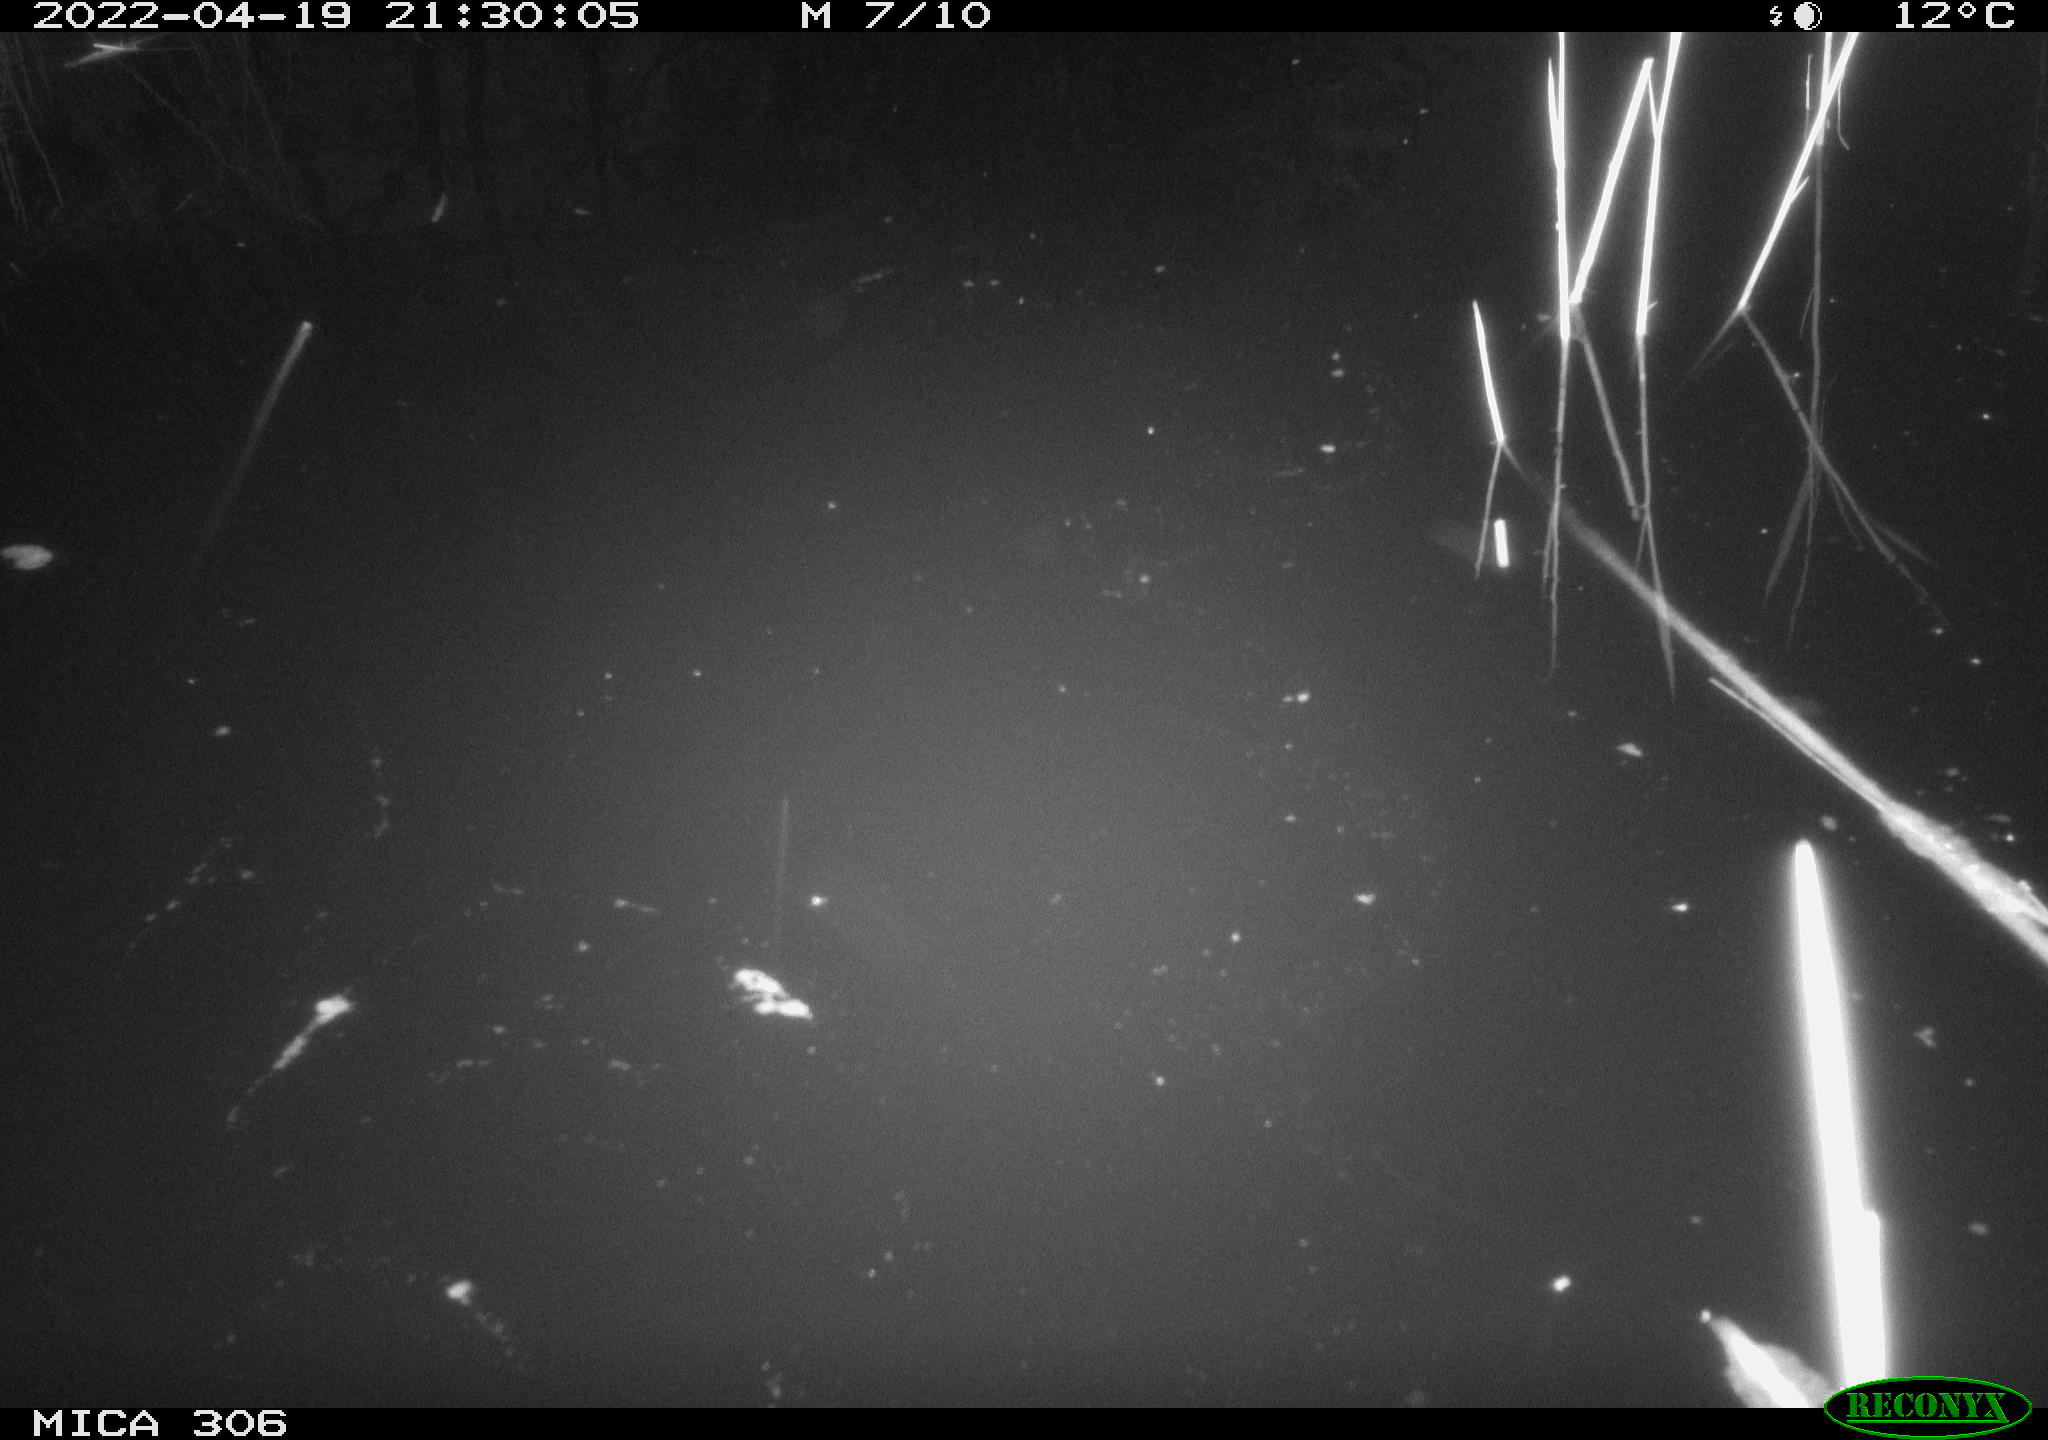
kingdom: Animalia
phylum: Chordata
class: Aves
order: Gruiformes
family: Rallidae
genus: Gallinula
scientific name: Gallinula chloropus
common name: Common moorhen
